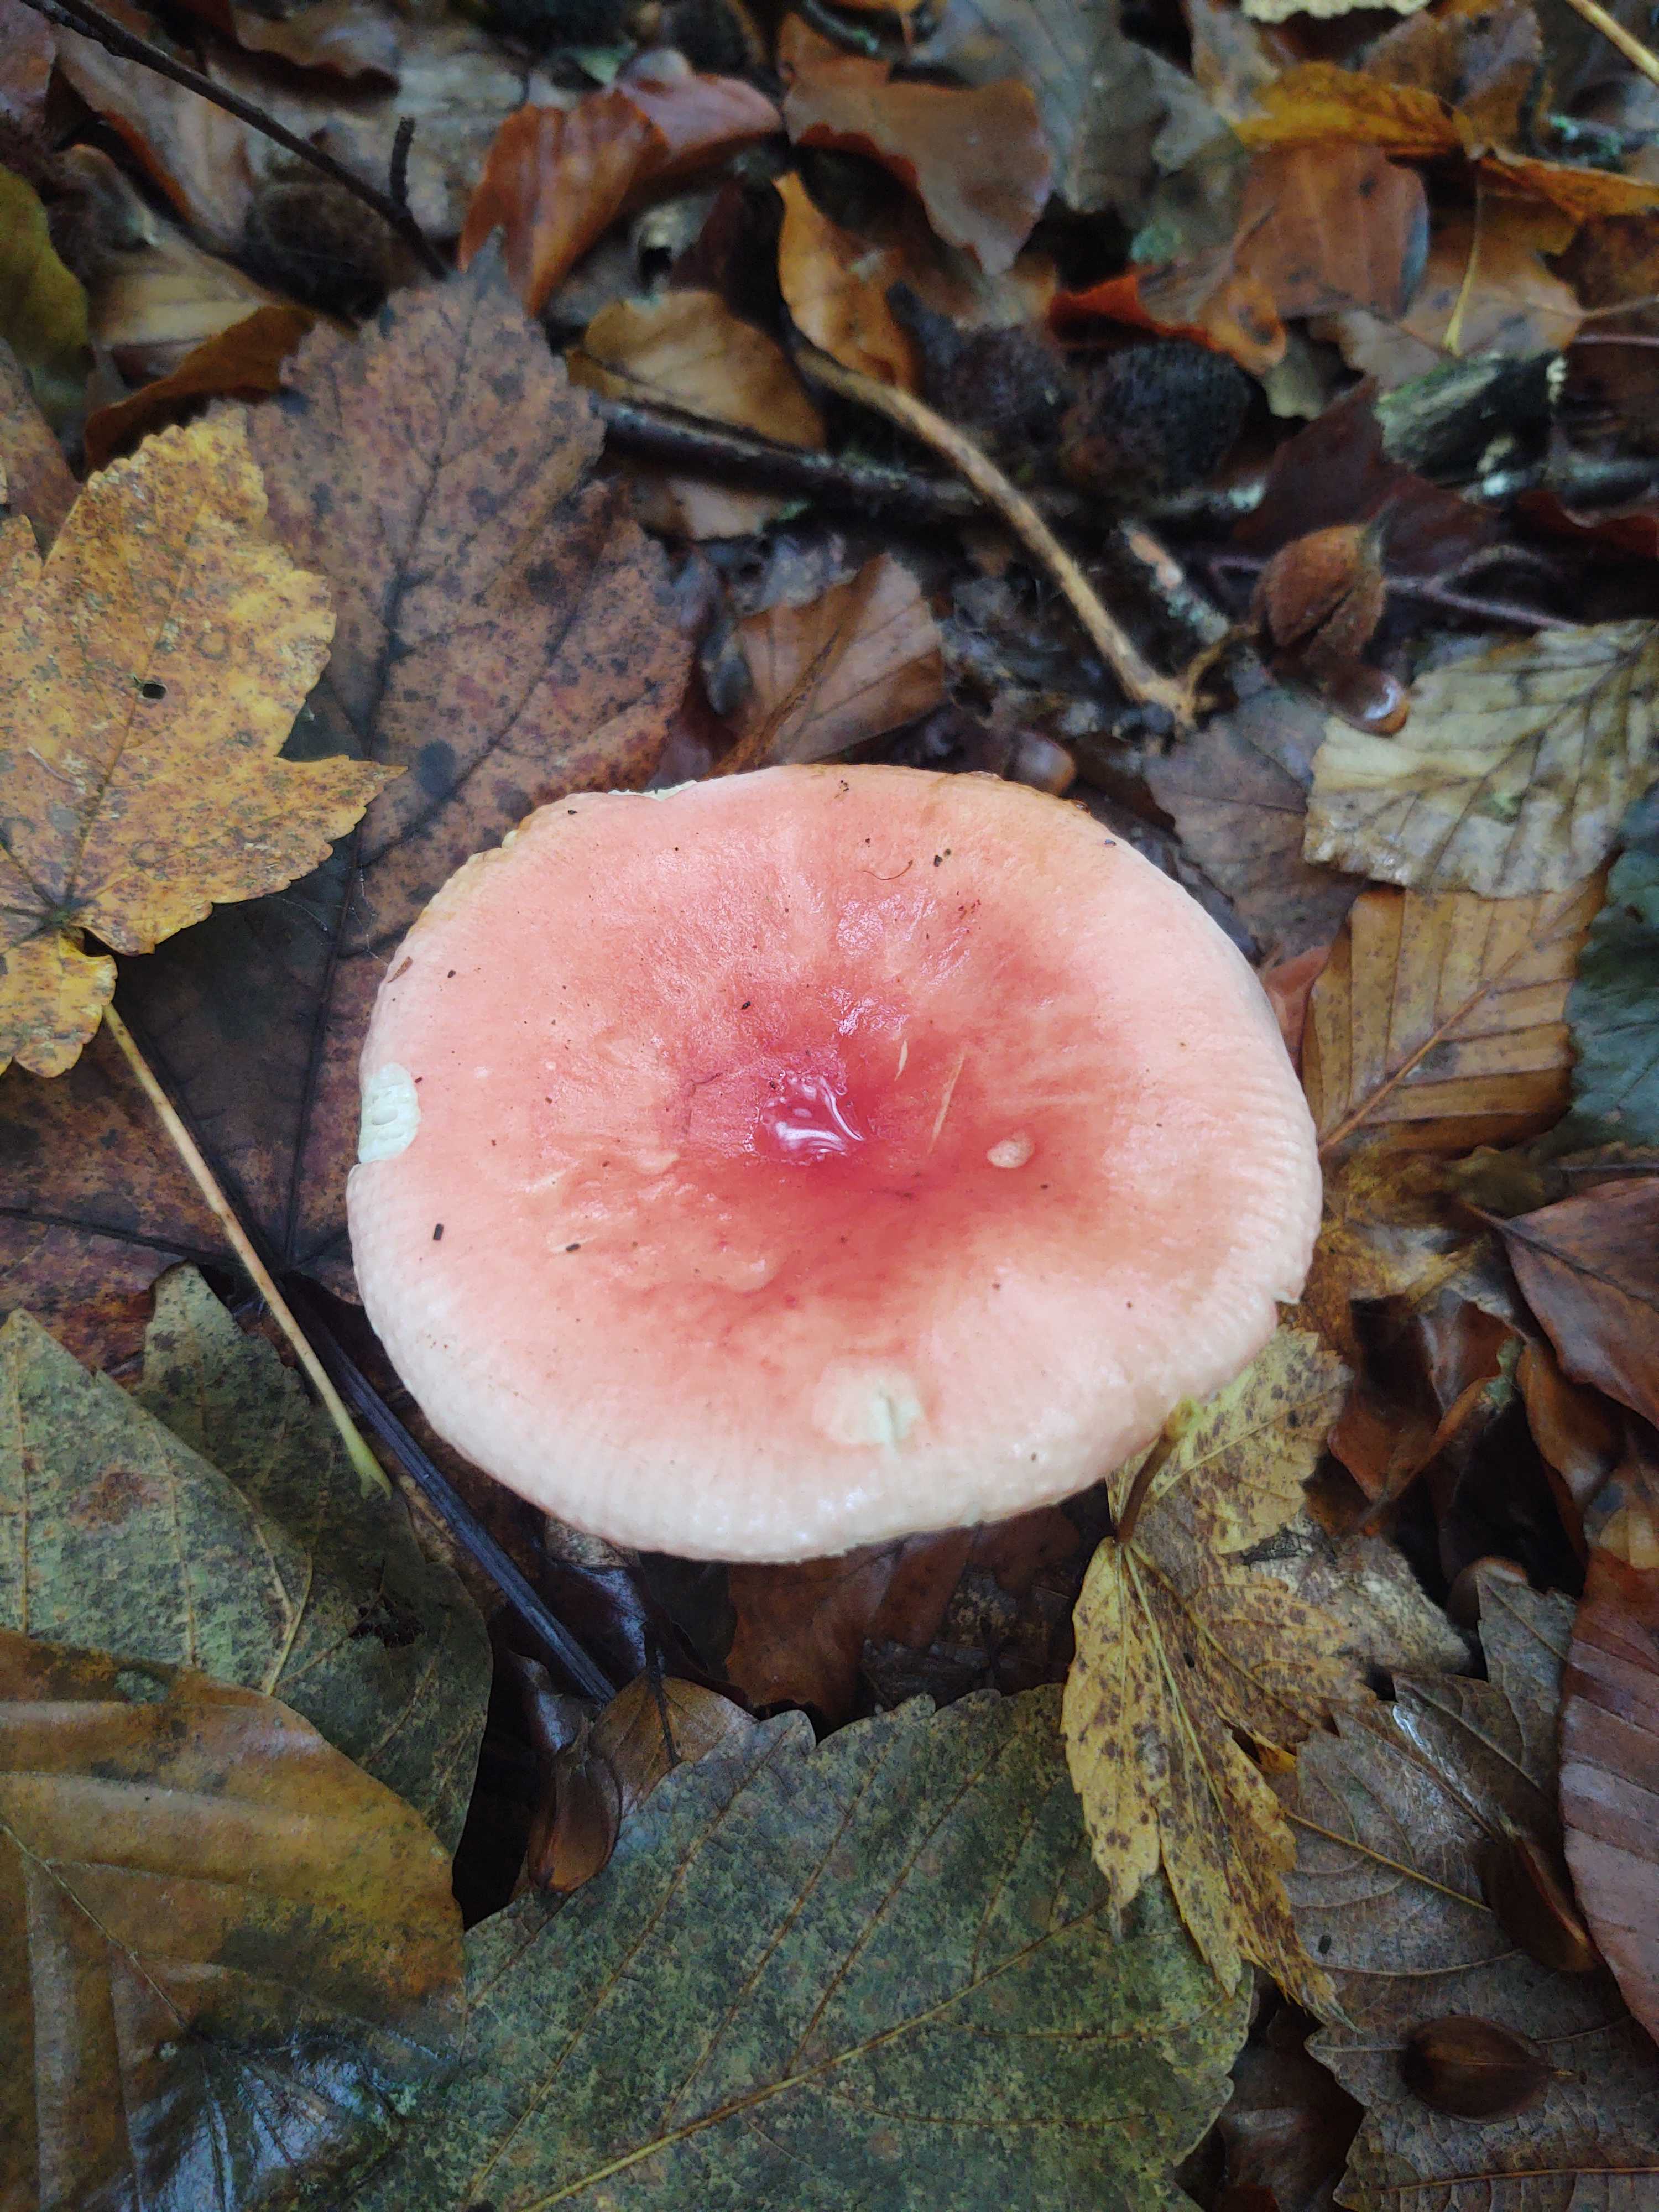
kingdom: Fungi
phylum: Basidiomycota
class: Agaricomycetes
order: Russulales
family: Russulaceae
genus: Russula
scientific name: Russula
